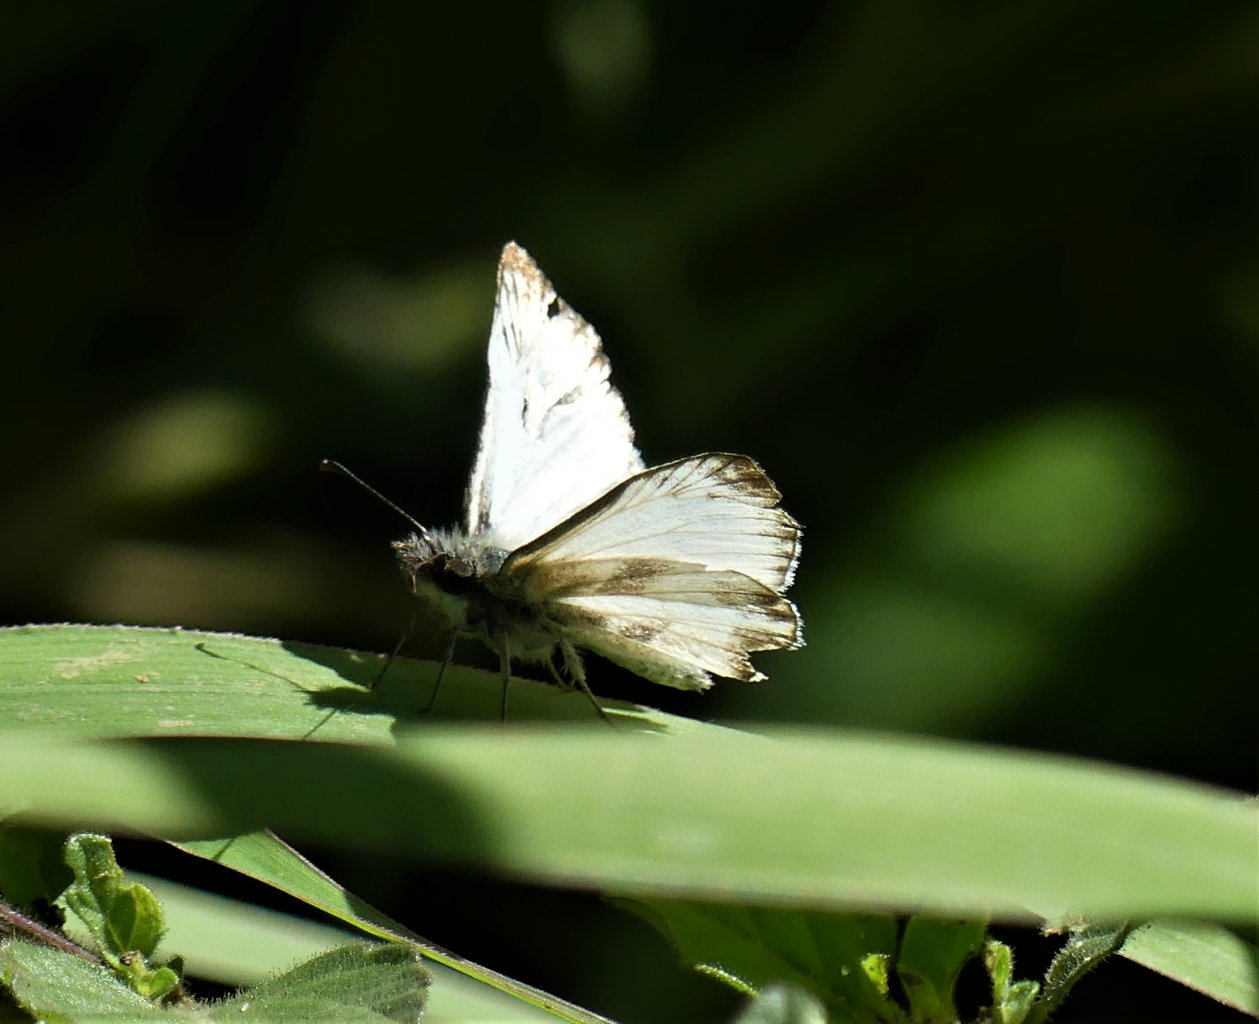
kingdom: Animalia
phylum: Arthropoda
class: Insecta
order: Lepidoptera
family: Hesperiidae
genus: Heliopetes
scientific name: Heliopetes arsalte
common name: Veined White-Skipper
